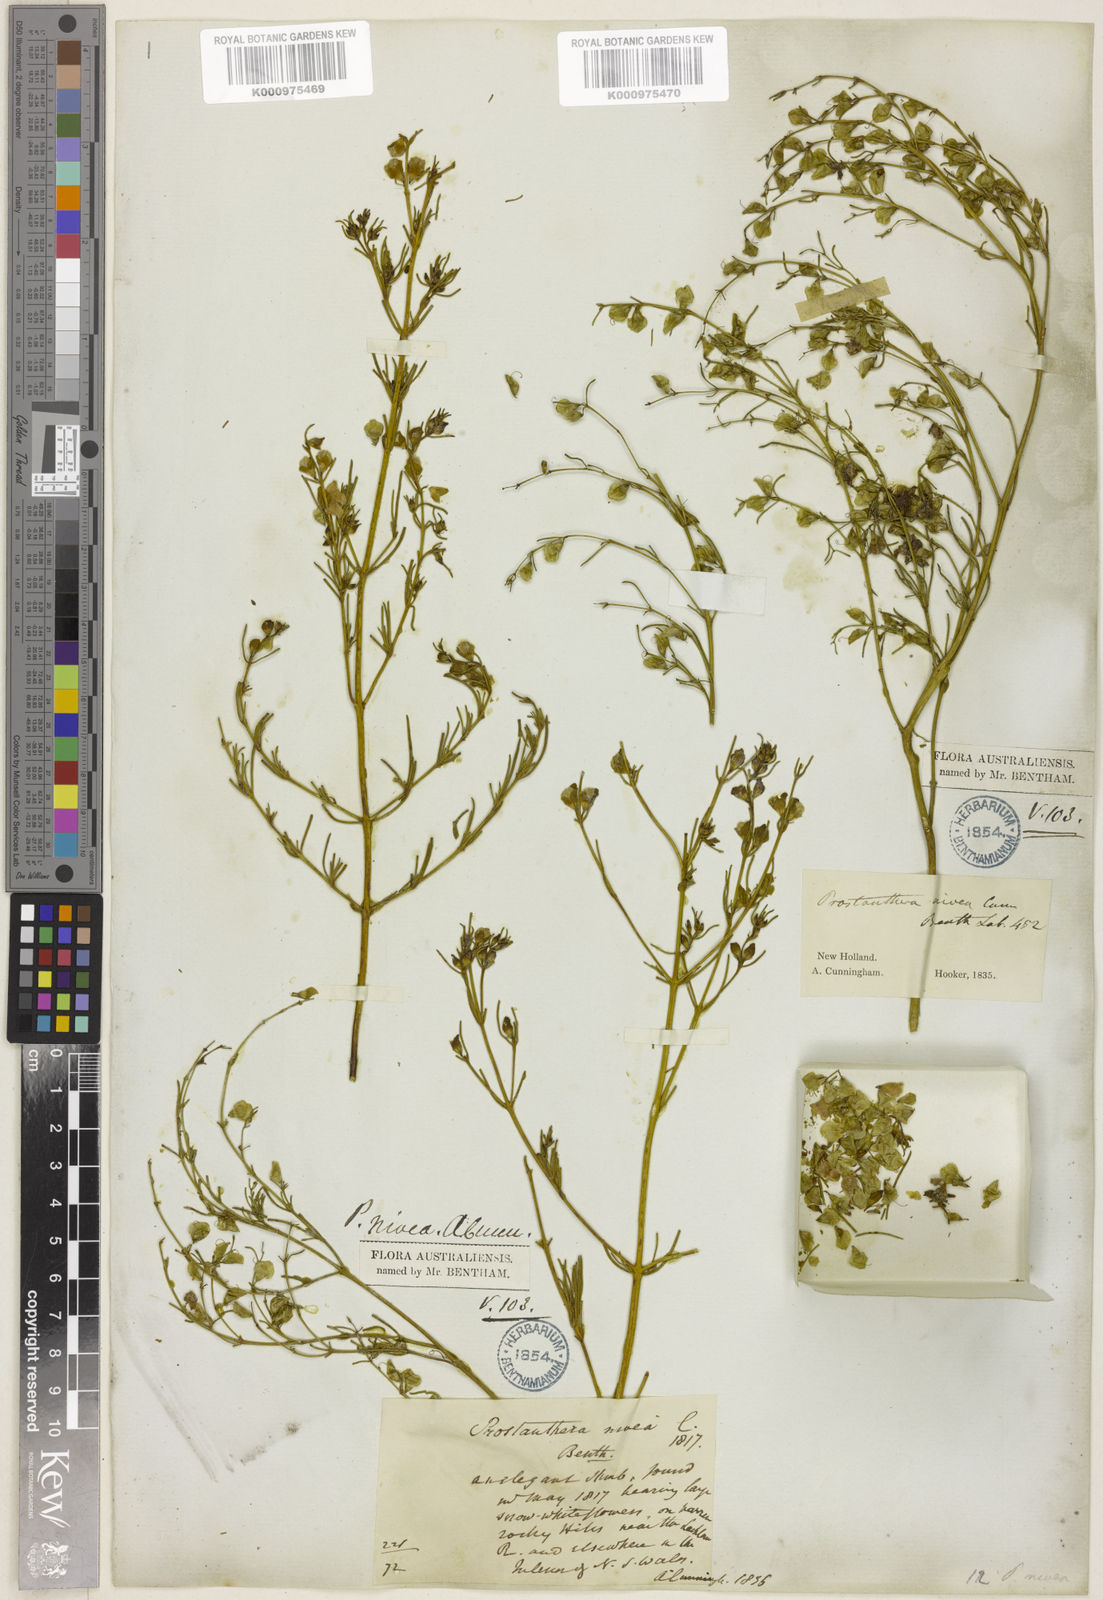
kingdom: Plantae
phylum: Tracheophyta
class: Magnoliopsida
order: Lamiales
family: Lamiaceae
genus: Prostanthera
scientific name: Prostanthera nivea
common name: Snowy mintbush
